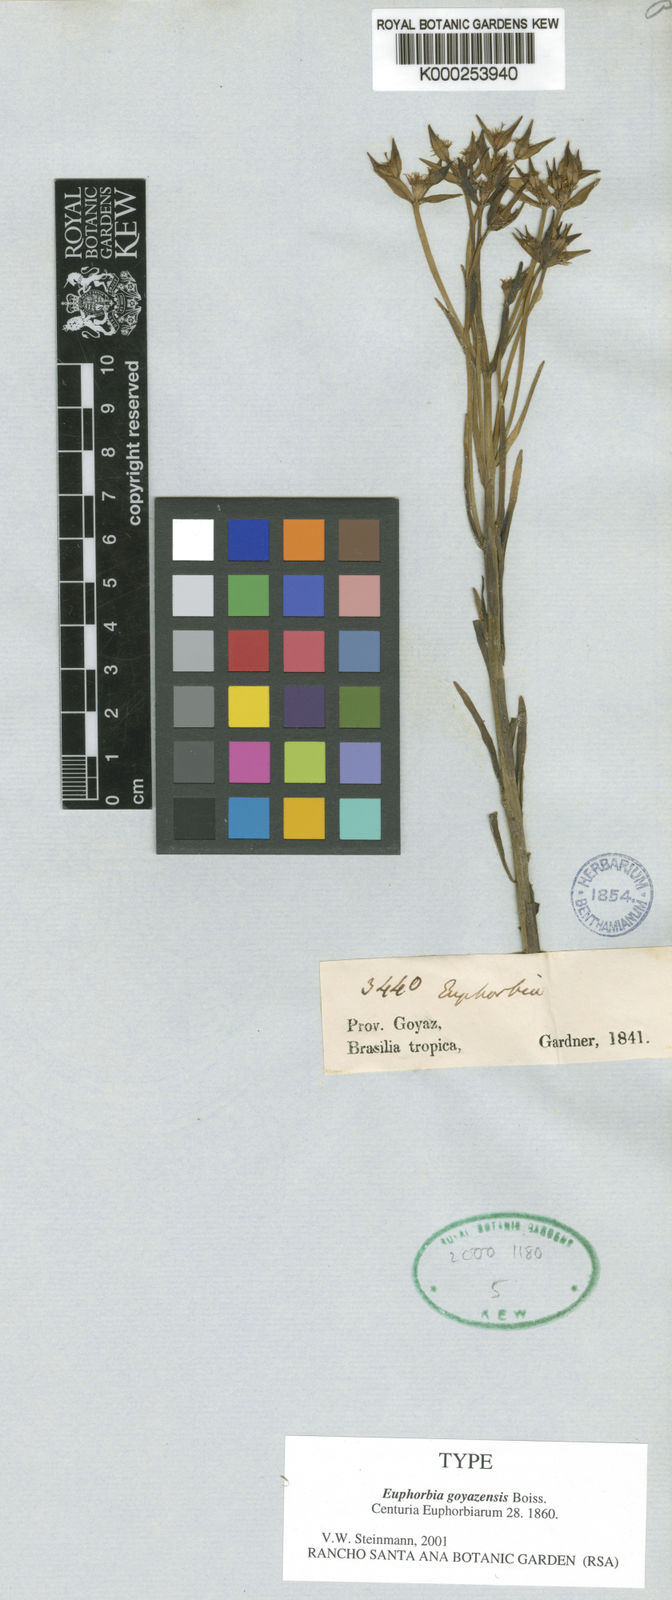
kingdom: Plantae
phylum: Tracheophyta
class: Magnoliopsida
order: Malpighiales
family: Euphorbiaceae
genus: Euphorbia
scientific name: Euphorbia goyazensis
